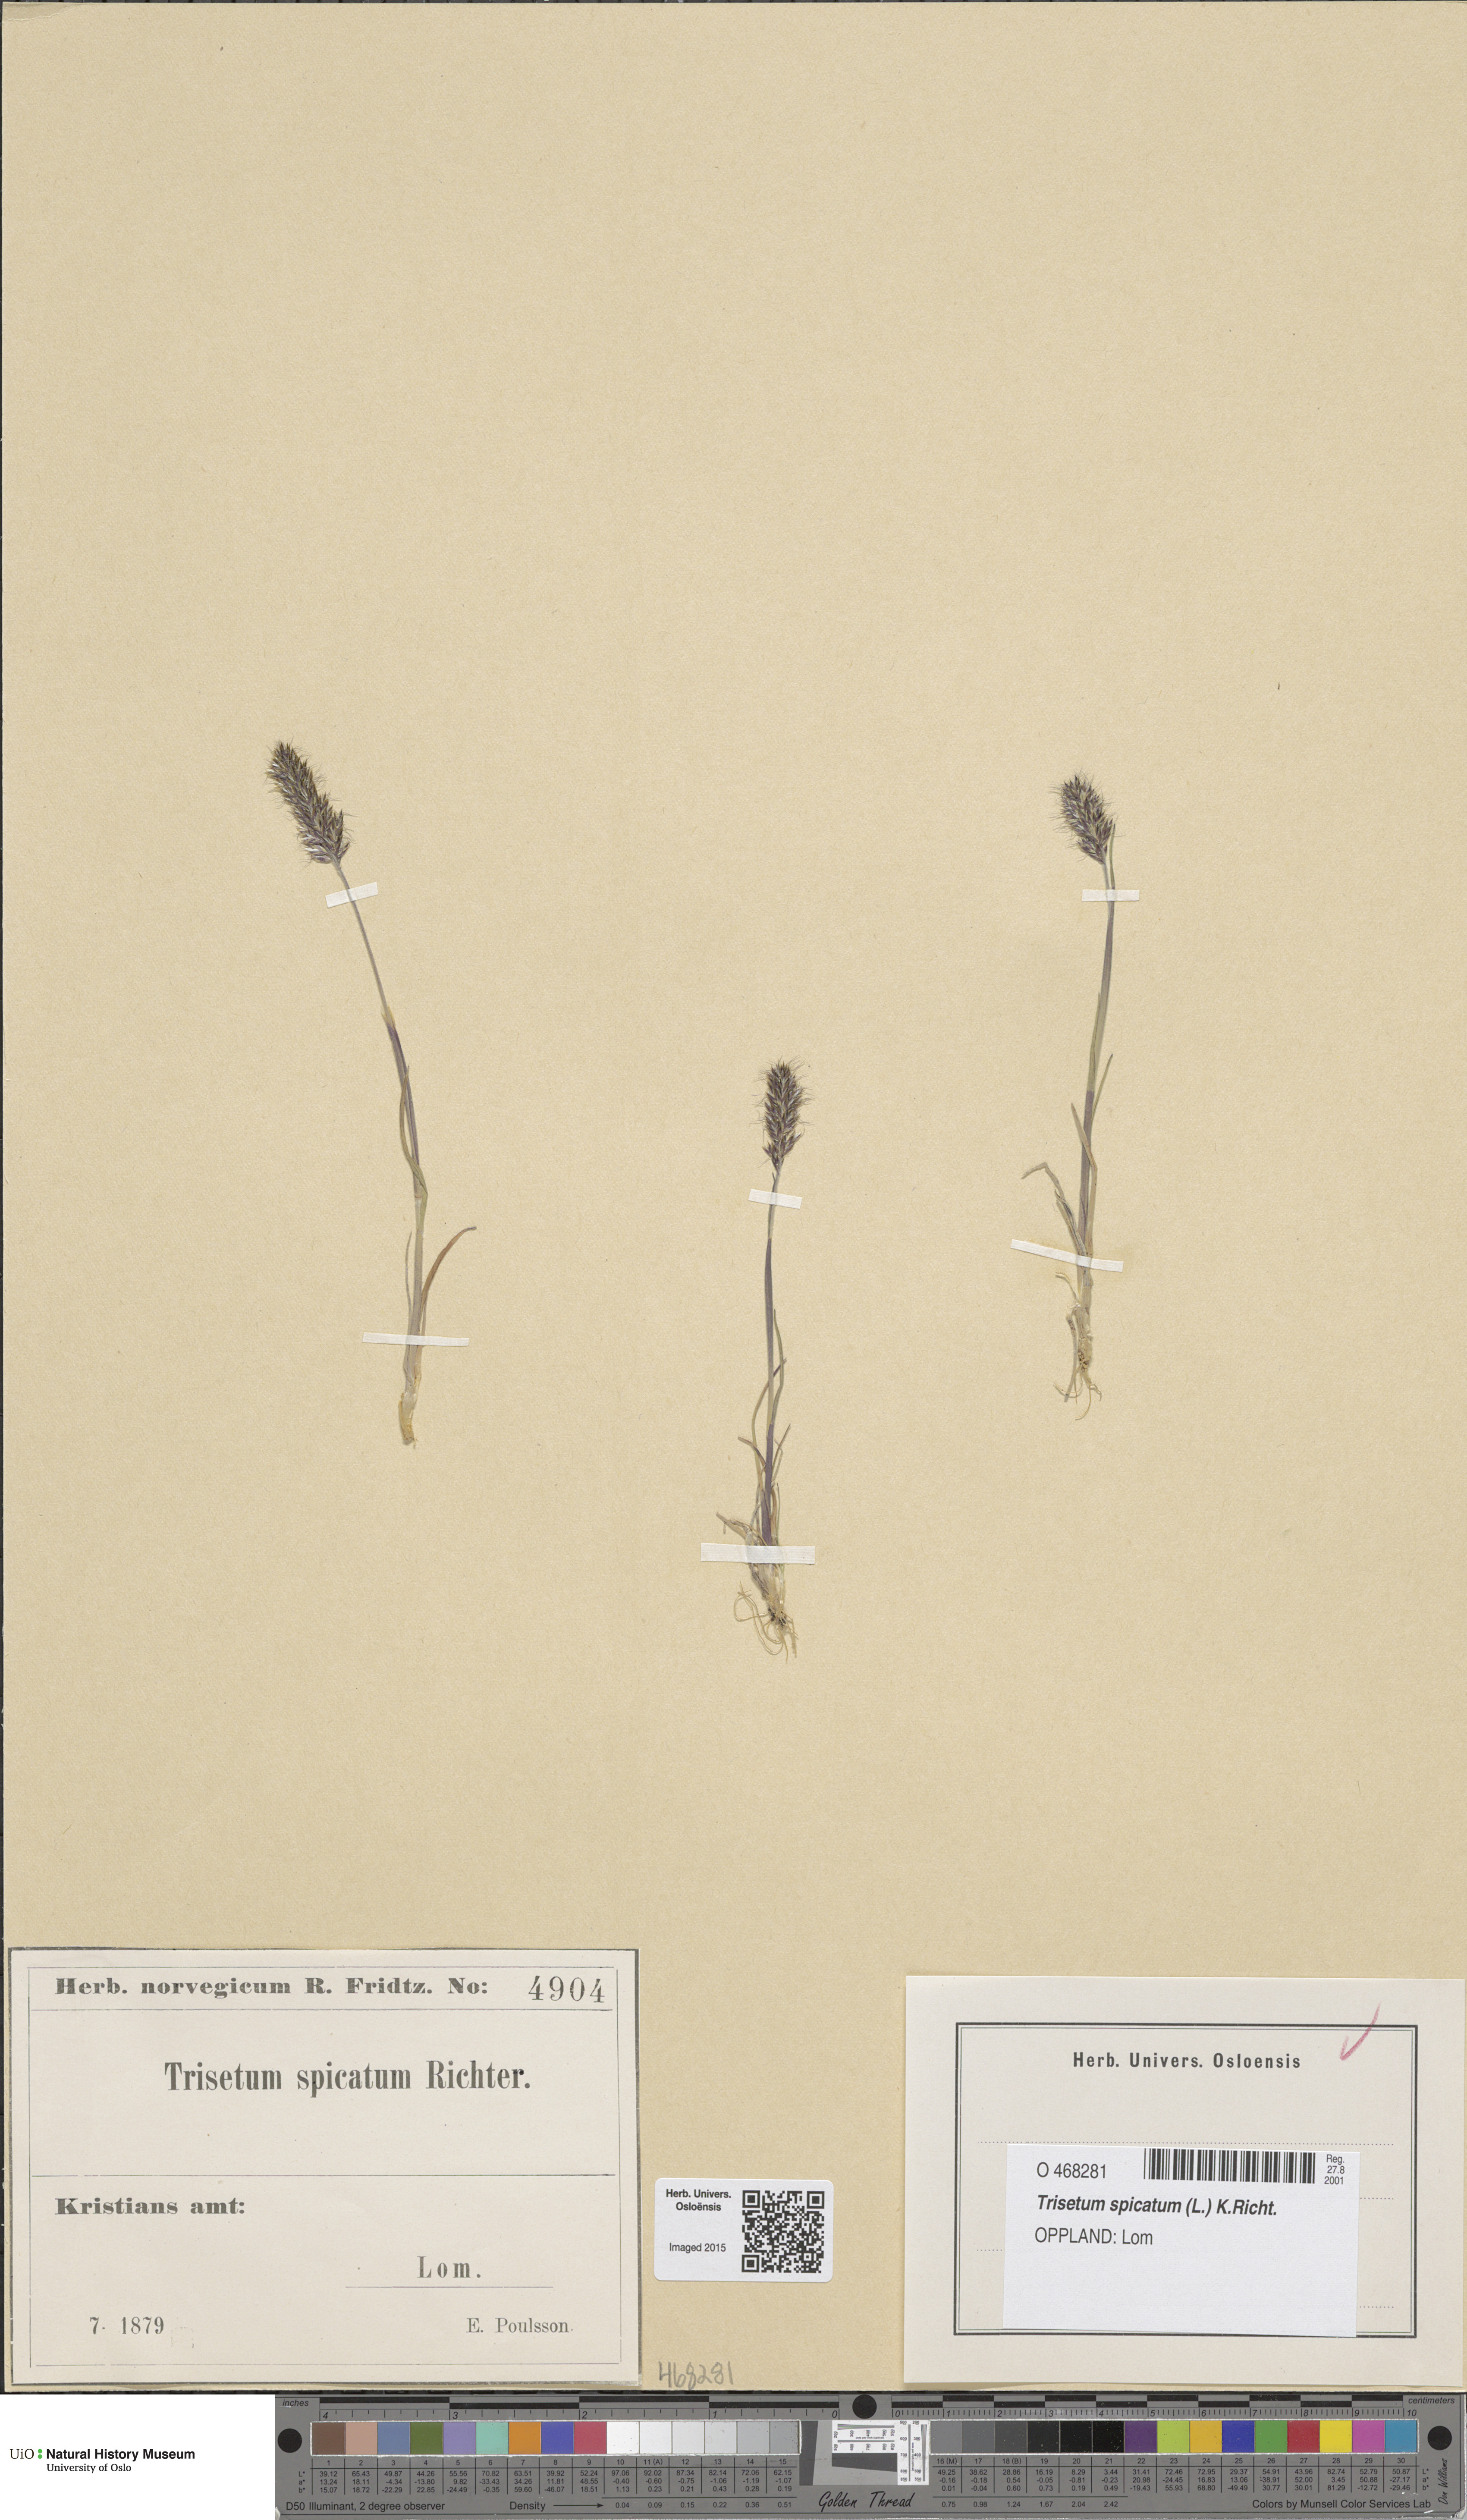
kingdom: Plantae
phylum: Tracheophyta
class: Liliopsida
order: Poales
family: Poaceae
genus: Koeleria
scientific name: Koeleria spicata
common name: Mountain trisetum
